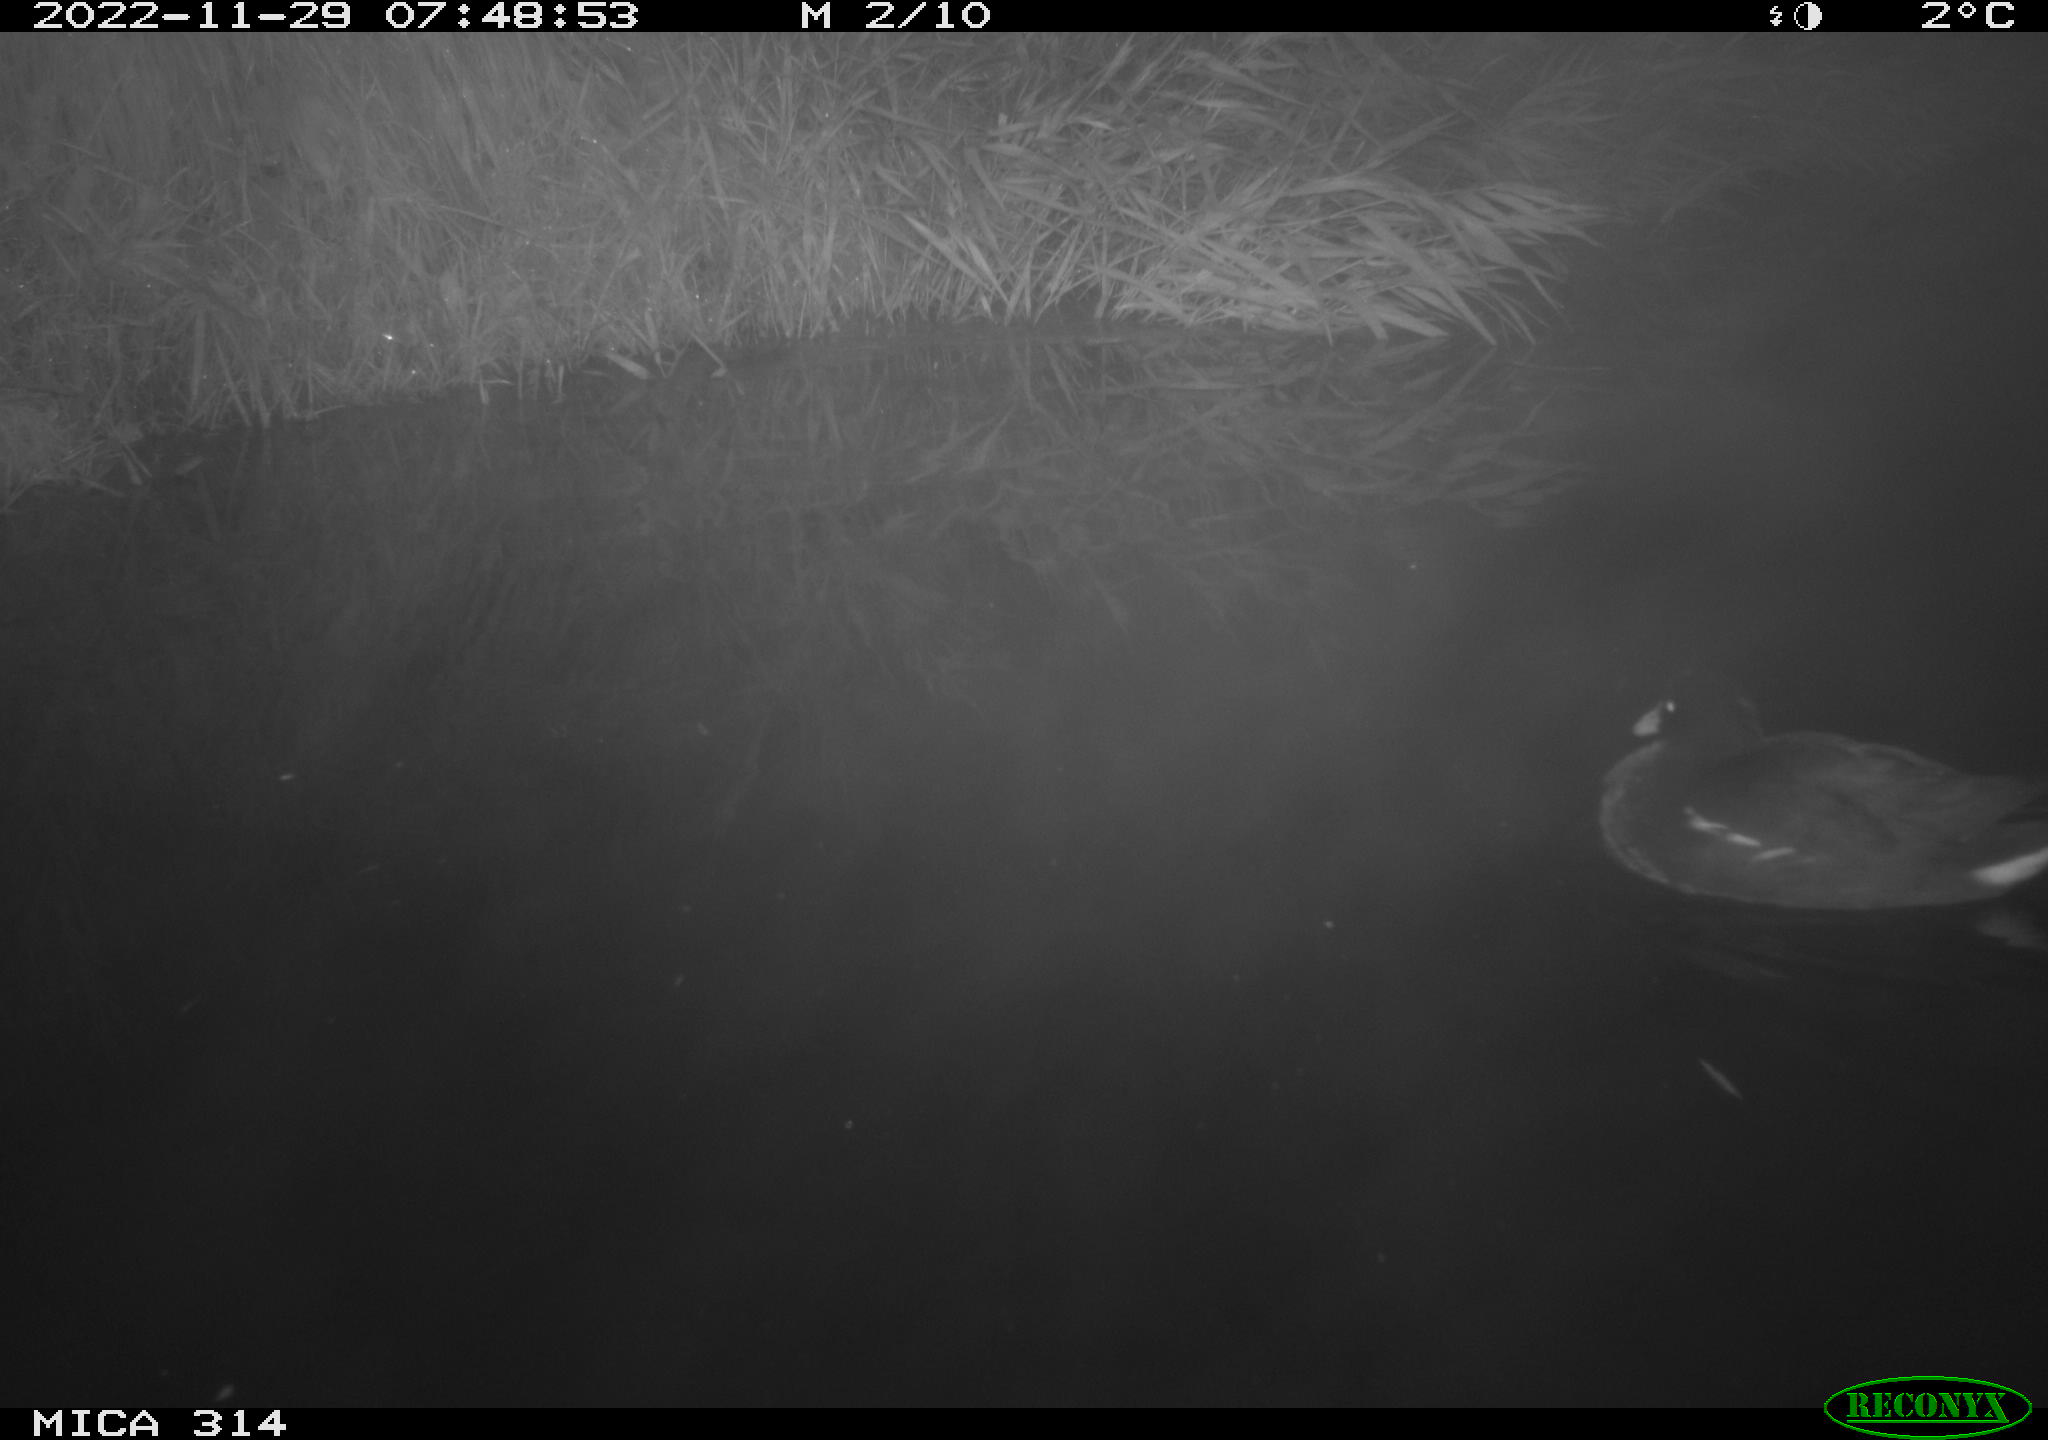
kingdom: Animalia
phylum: Chordata
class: Aves
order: Gruiformes
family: Rallidae
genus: Gallinula
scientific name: Gallinula chloropus
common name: Common moorhen
